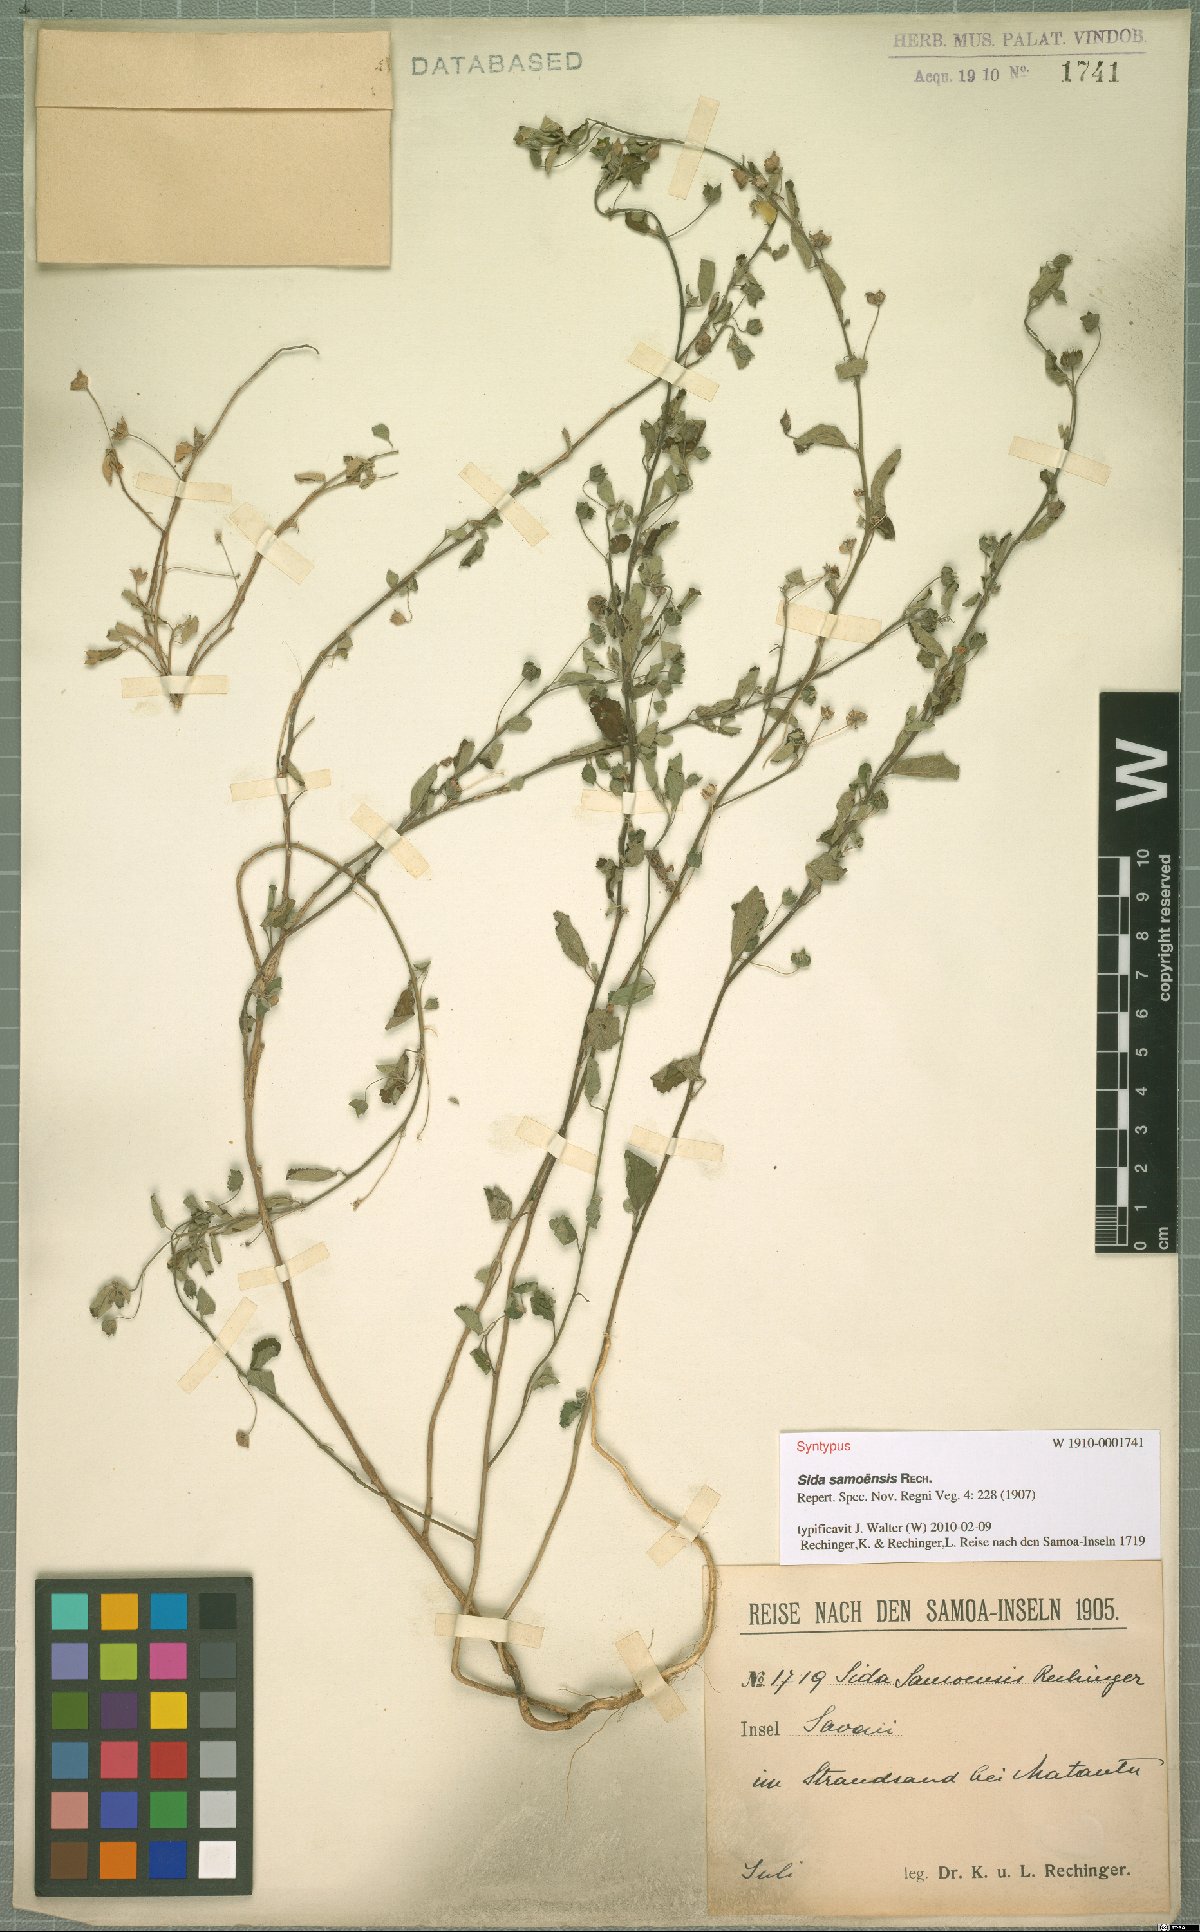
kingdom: Plantae
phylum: Tracheophyta
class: Magnoliopsida
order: Malvales
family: Malvaceae
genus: Sida
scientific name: Sida pusilla
